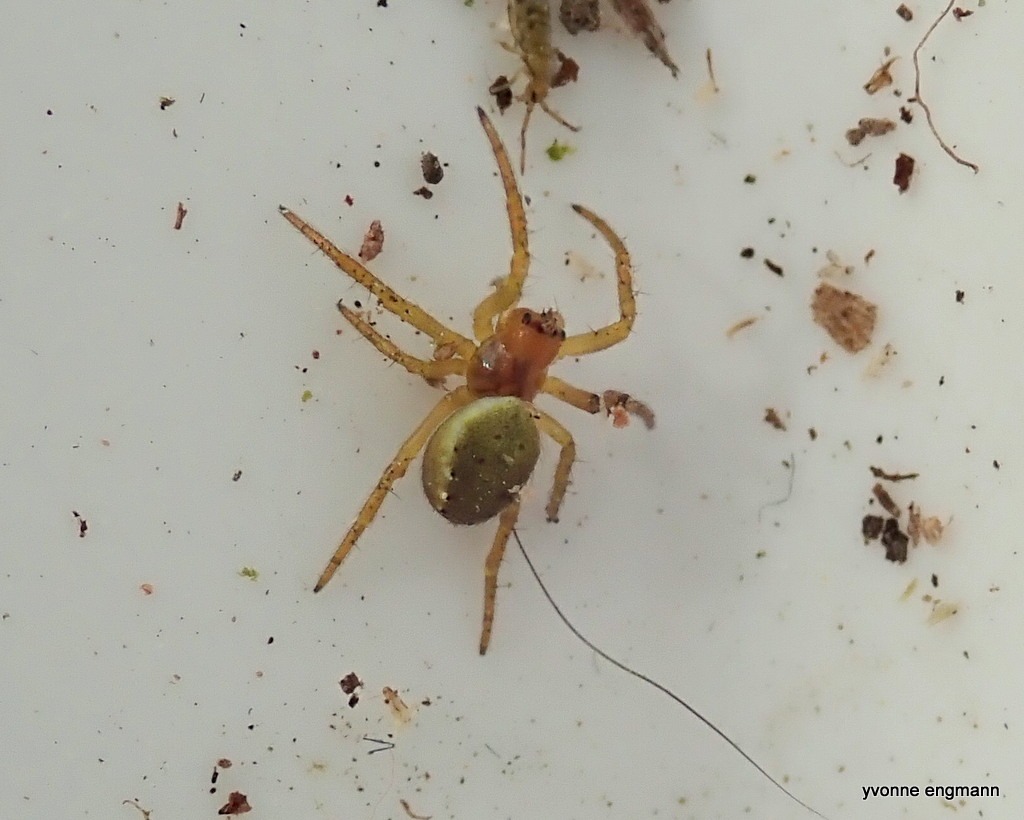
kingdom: Animalia
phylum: Arthropoda
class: Arachnida
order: Araneae
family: Araneidae
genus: Araniella
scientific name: Araniella
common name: Agurkeedderkopslægten
